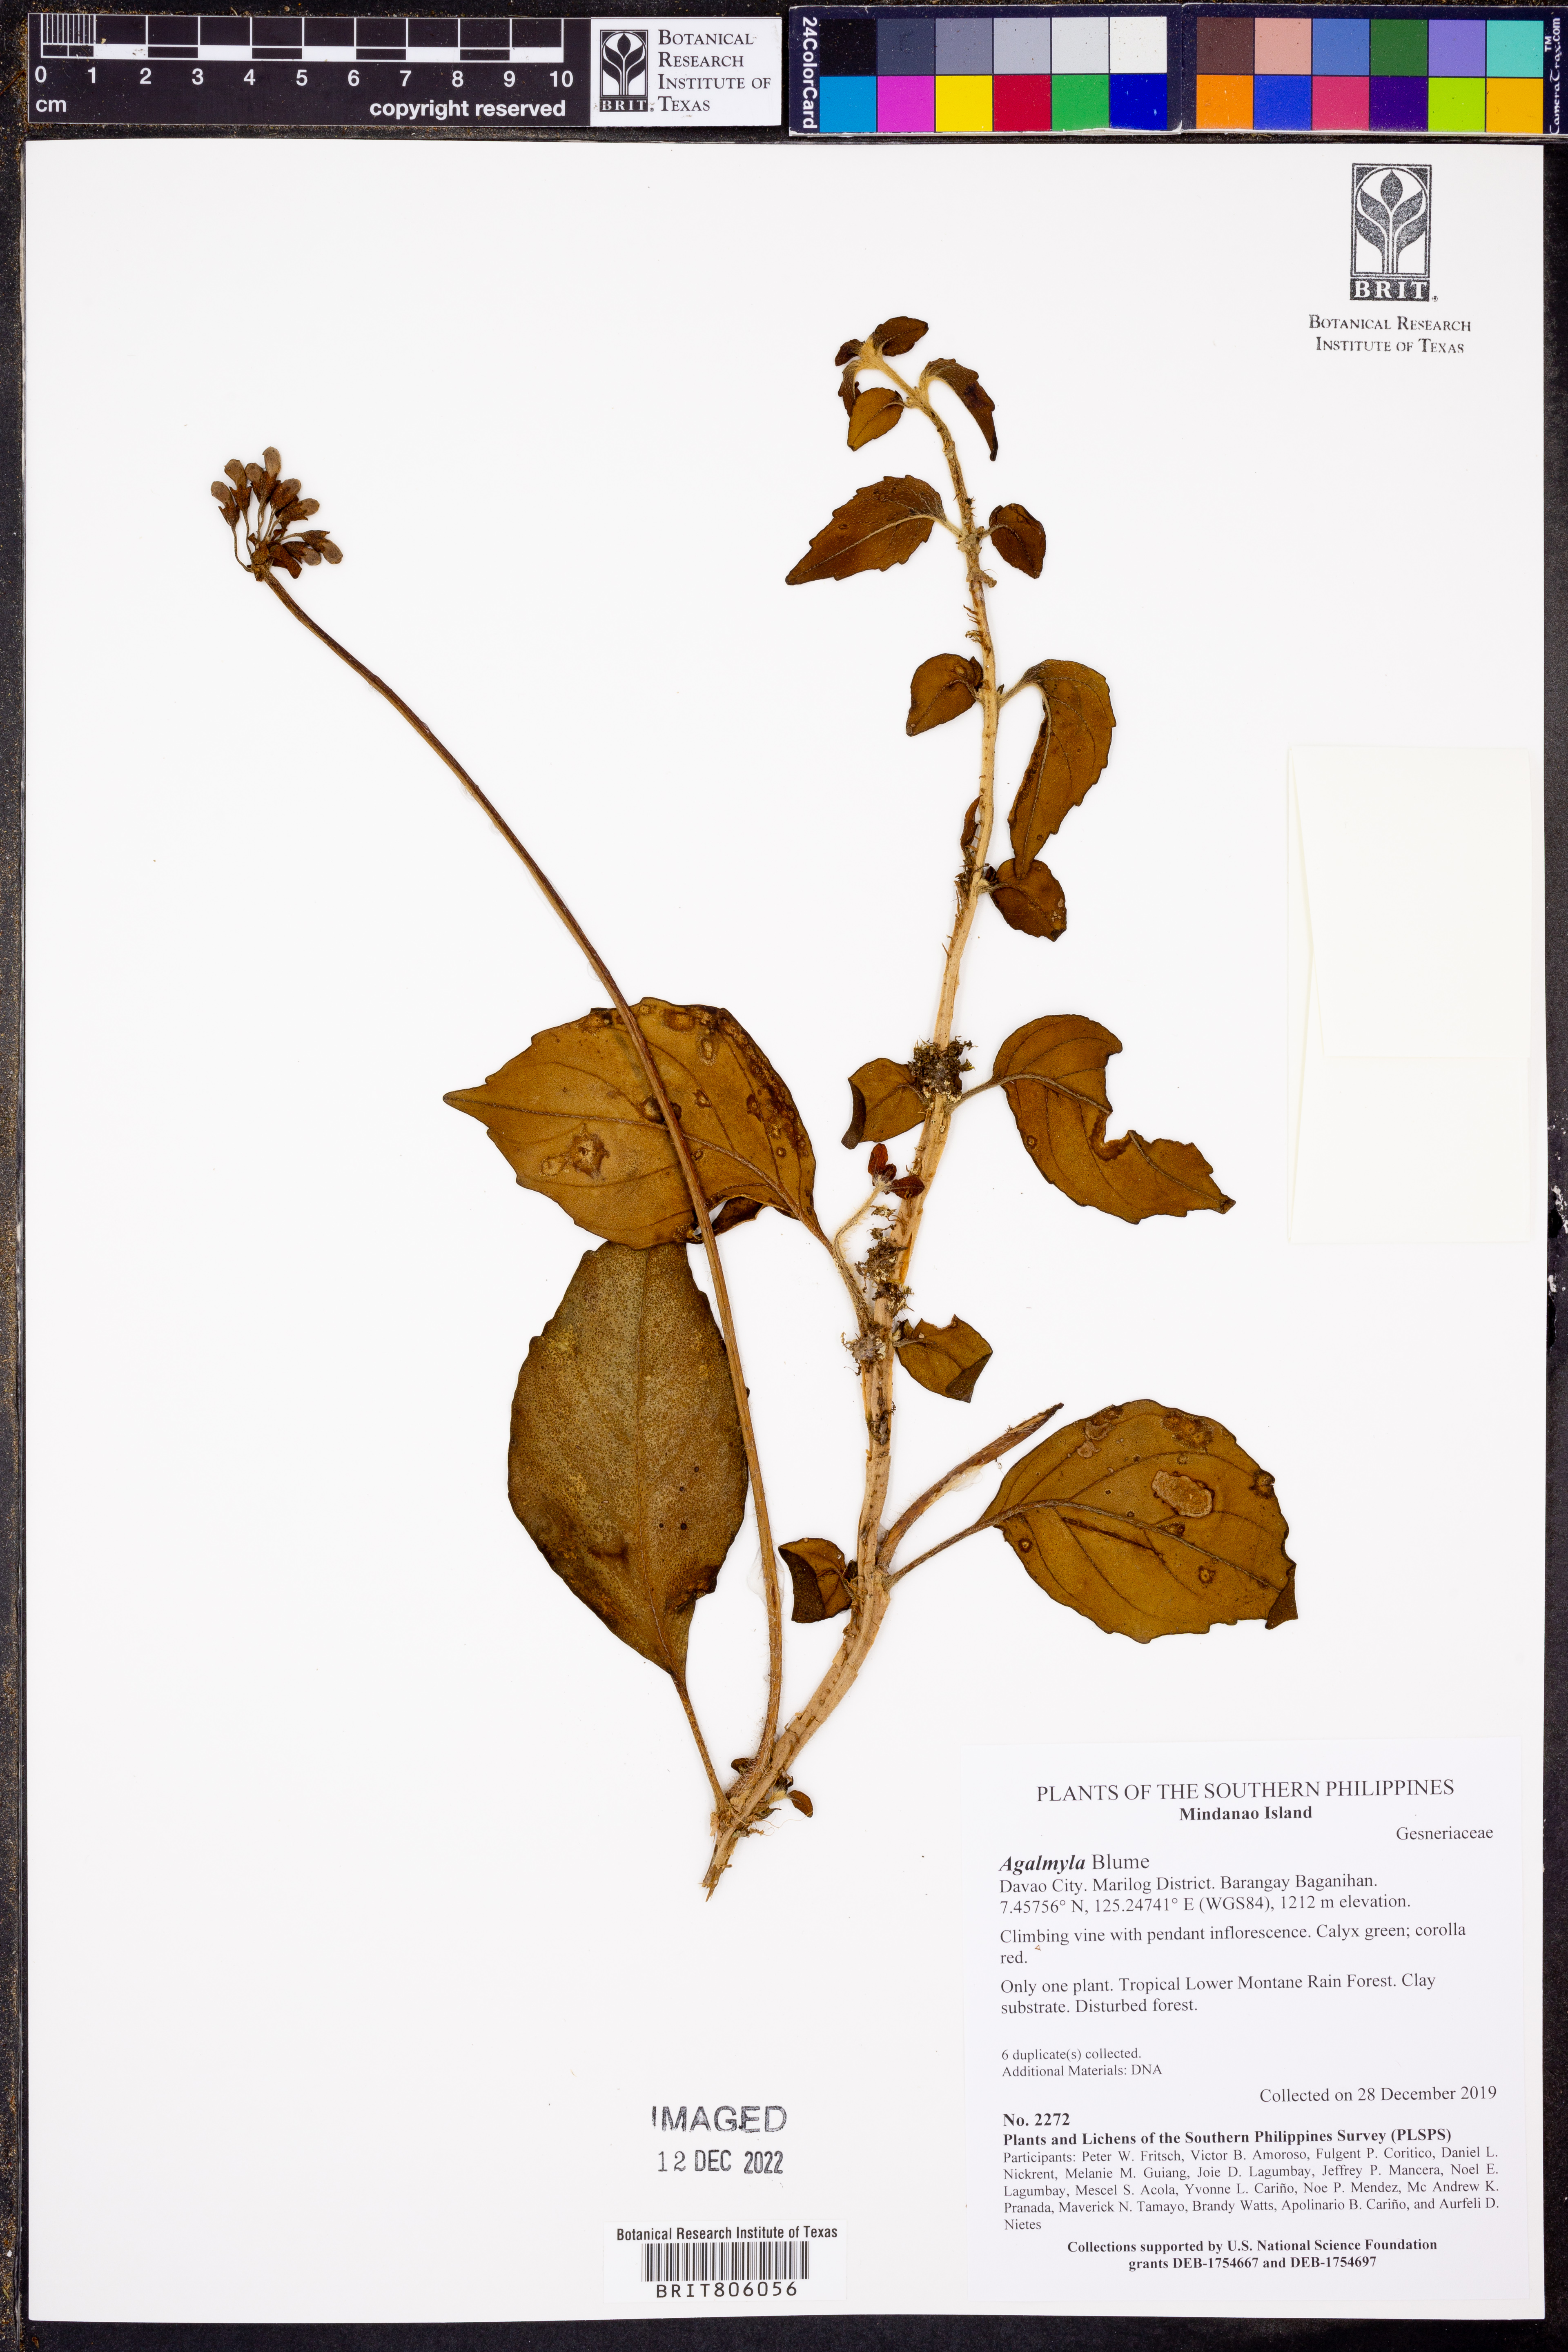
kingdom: Plantae
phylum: Tracheophyta
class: Magnoliopsida
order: Lamiales
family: Gesneriaceae
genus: Agalmyla
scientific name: Agalmyla
